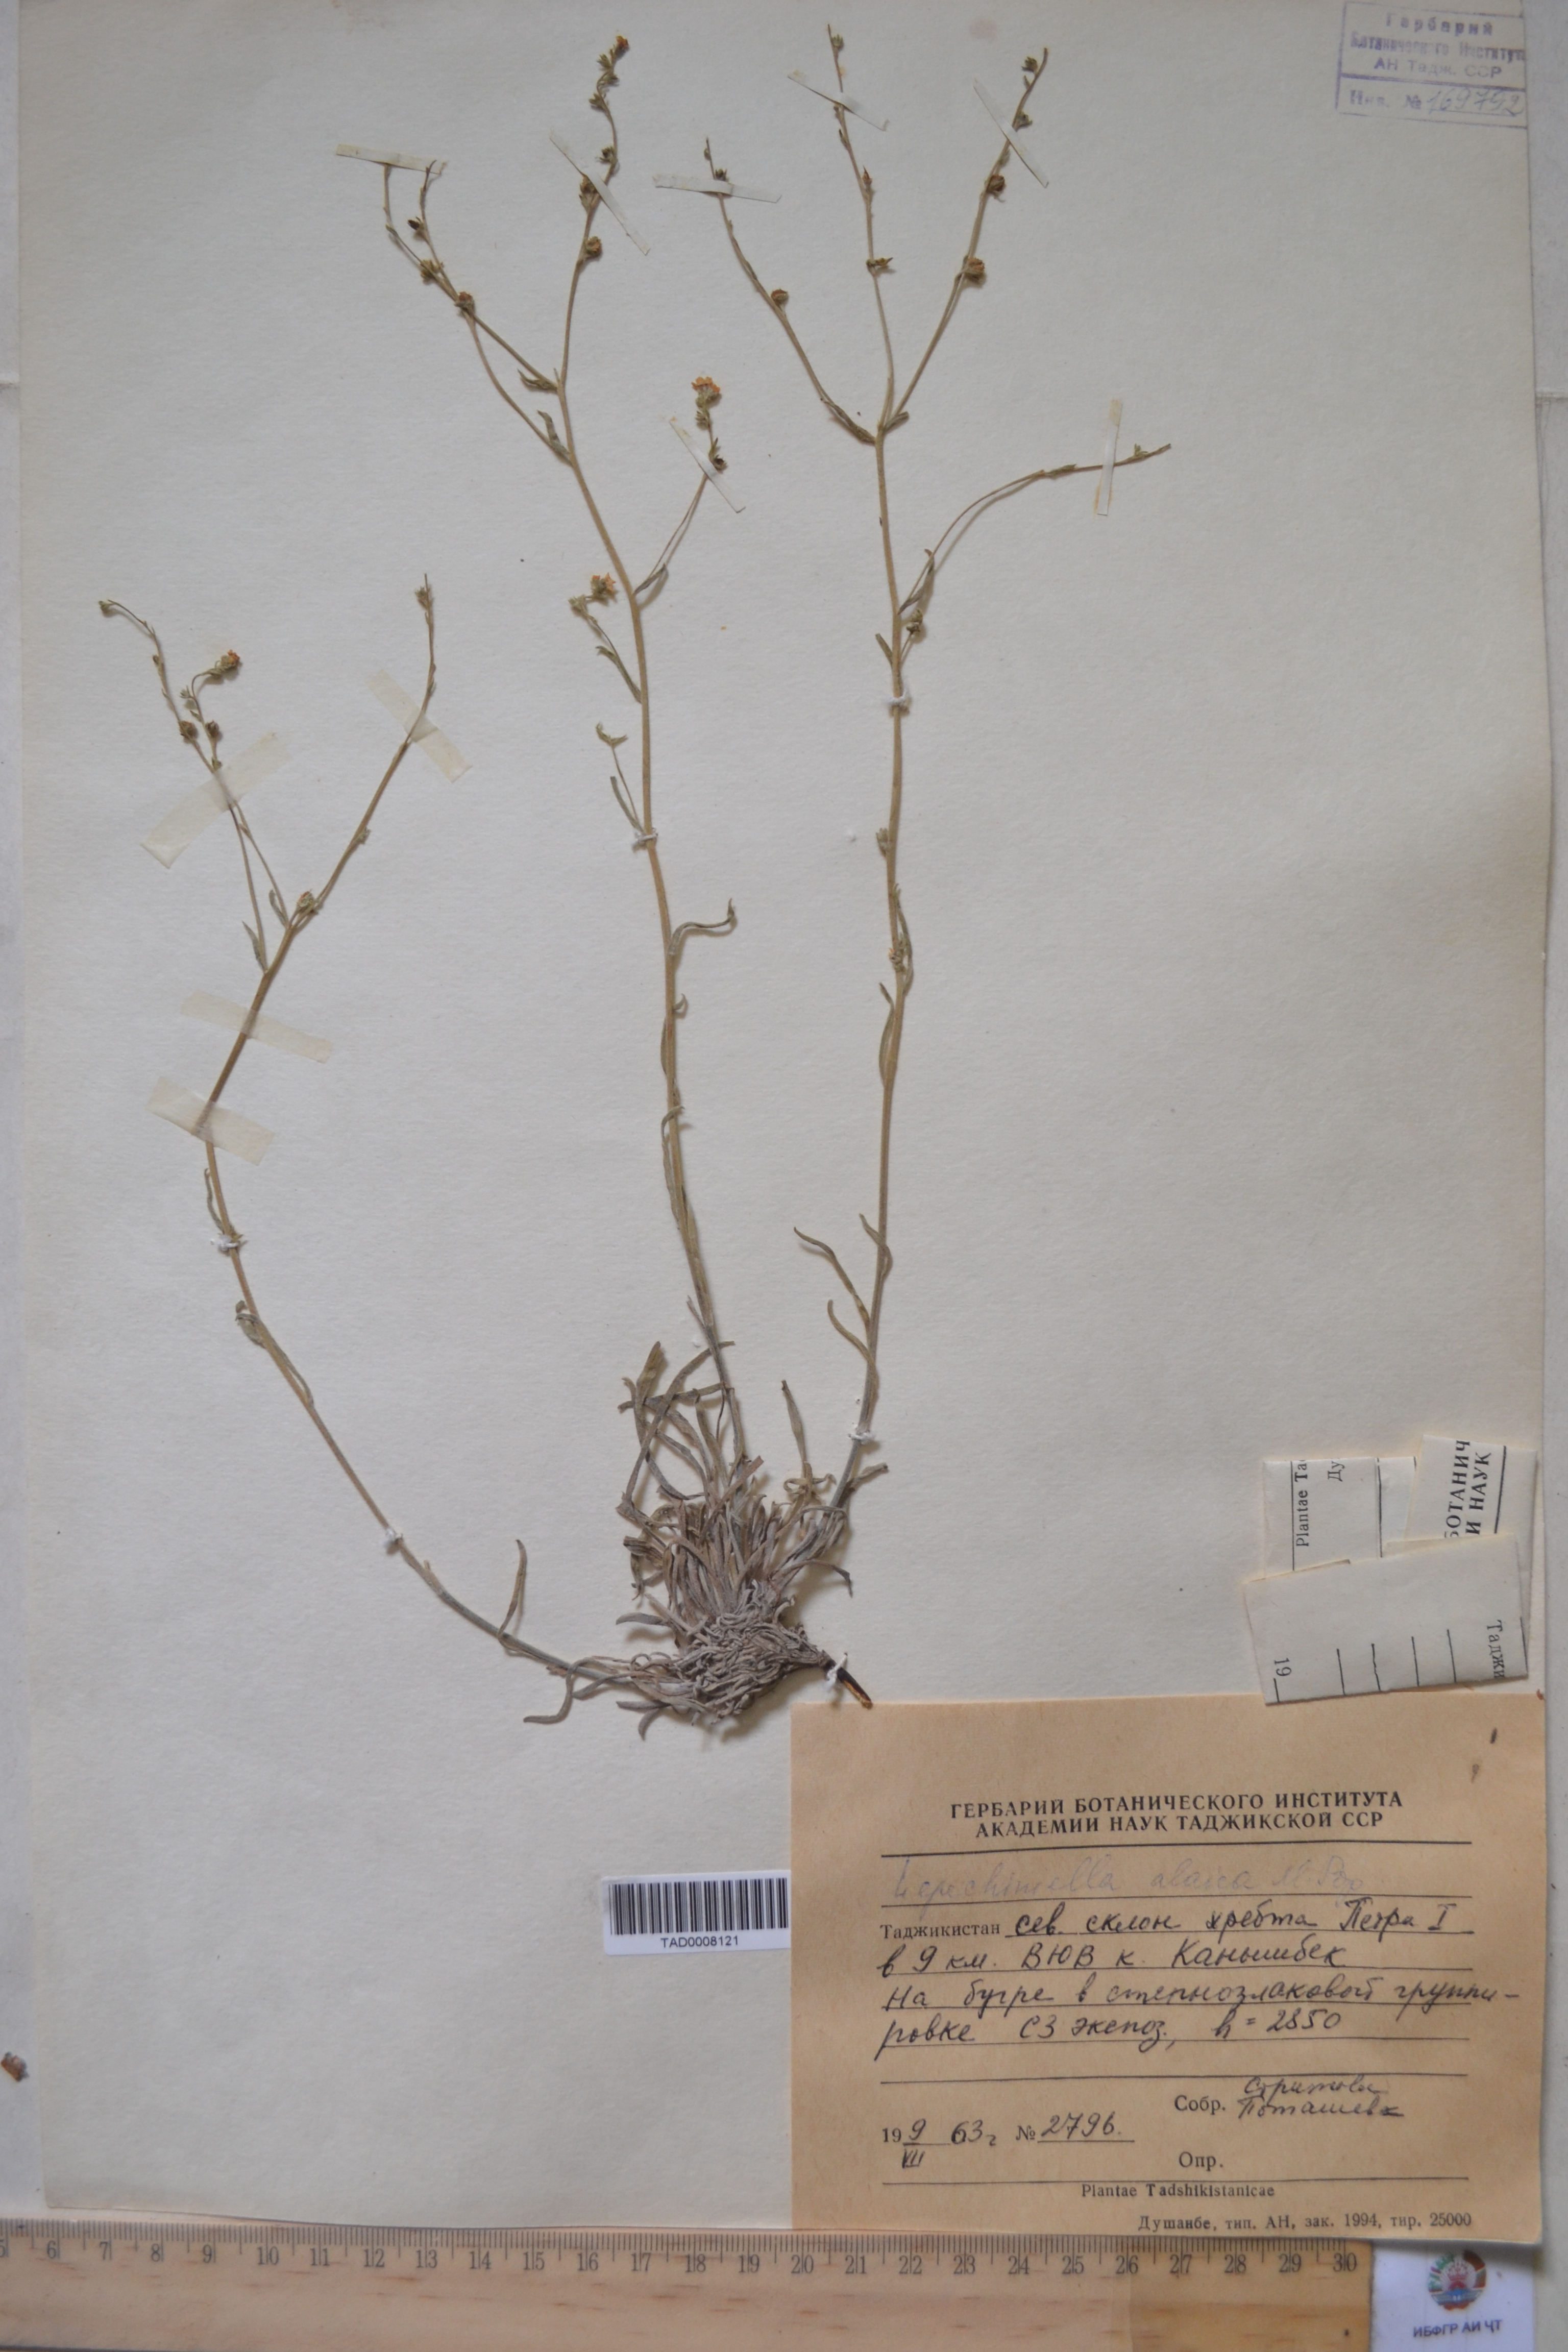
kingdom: Plantae
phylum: Tracheophyta
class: Magnoliopsida
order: Boraginales
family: Boraginaceae
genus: Lappula
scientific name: Lappula alaica
